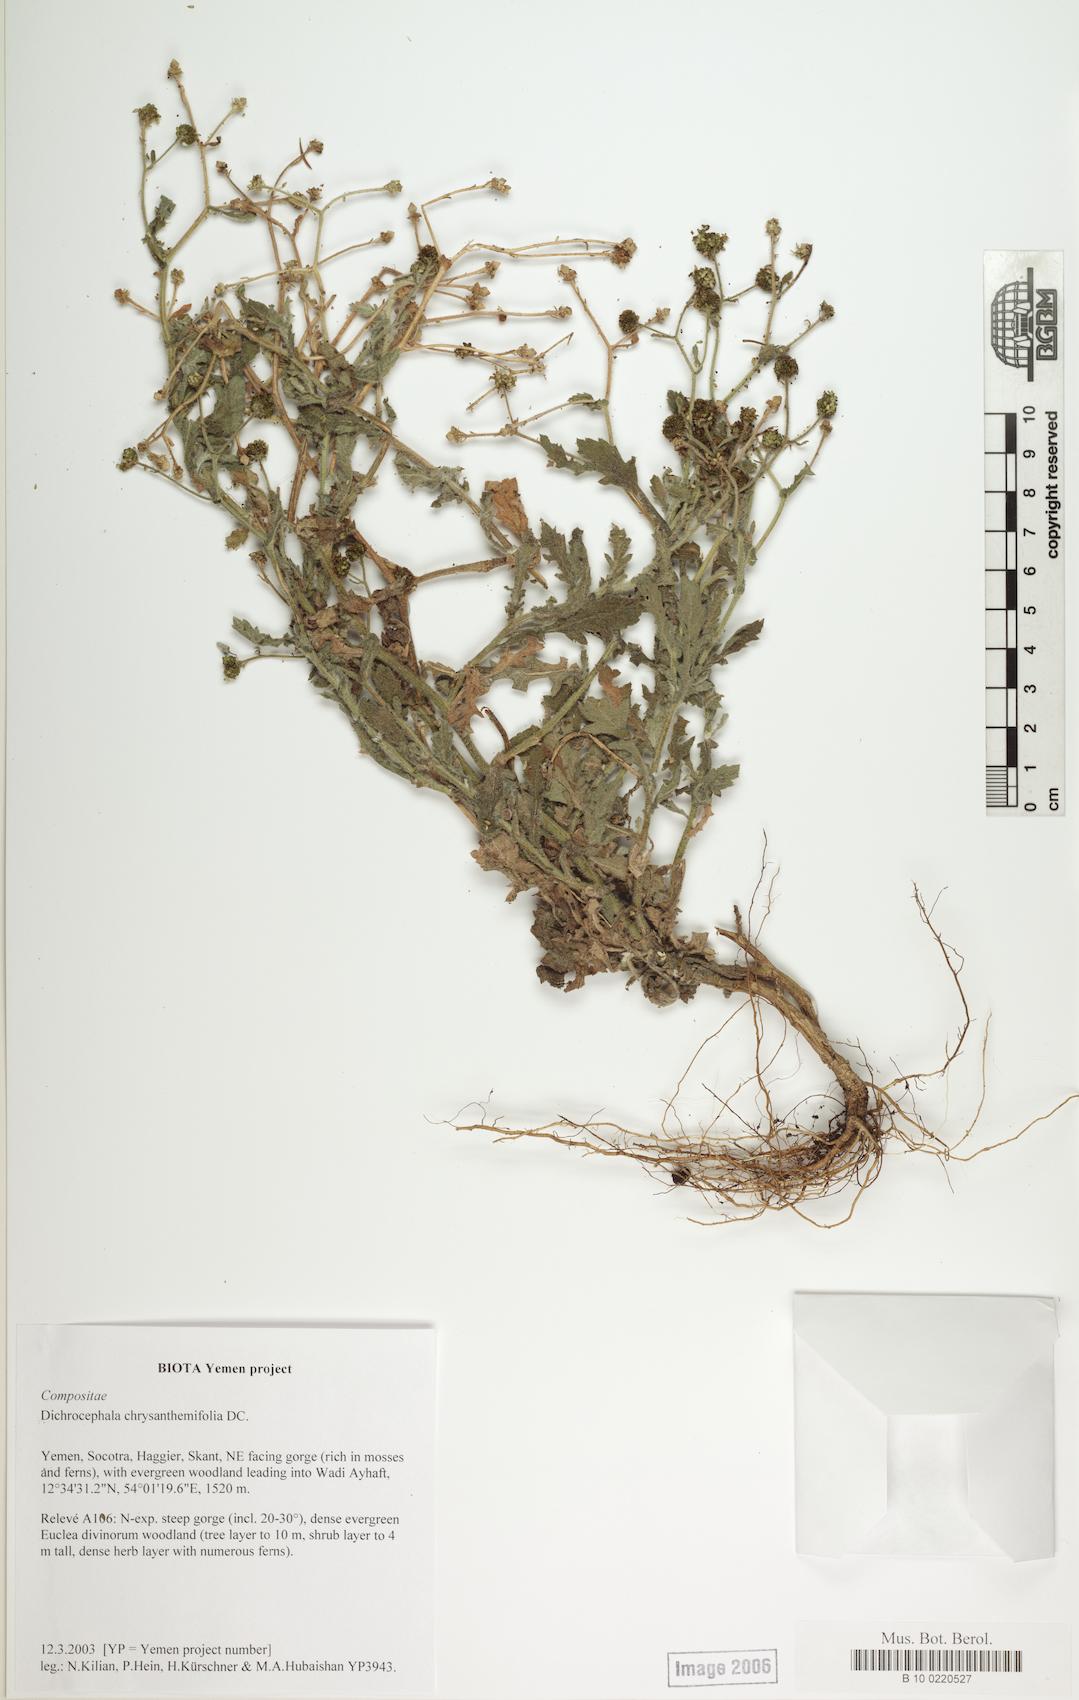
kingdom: Plantae
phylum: Tracheophyta
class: Magnoliopsida
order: Caryophyllales
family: Caryophyllaceae
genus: Stellaria
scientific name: Stellaria media
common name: Common chickweed
